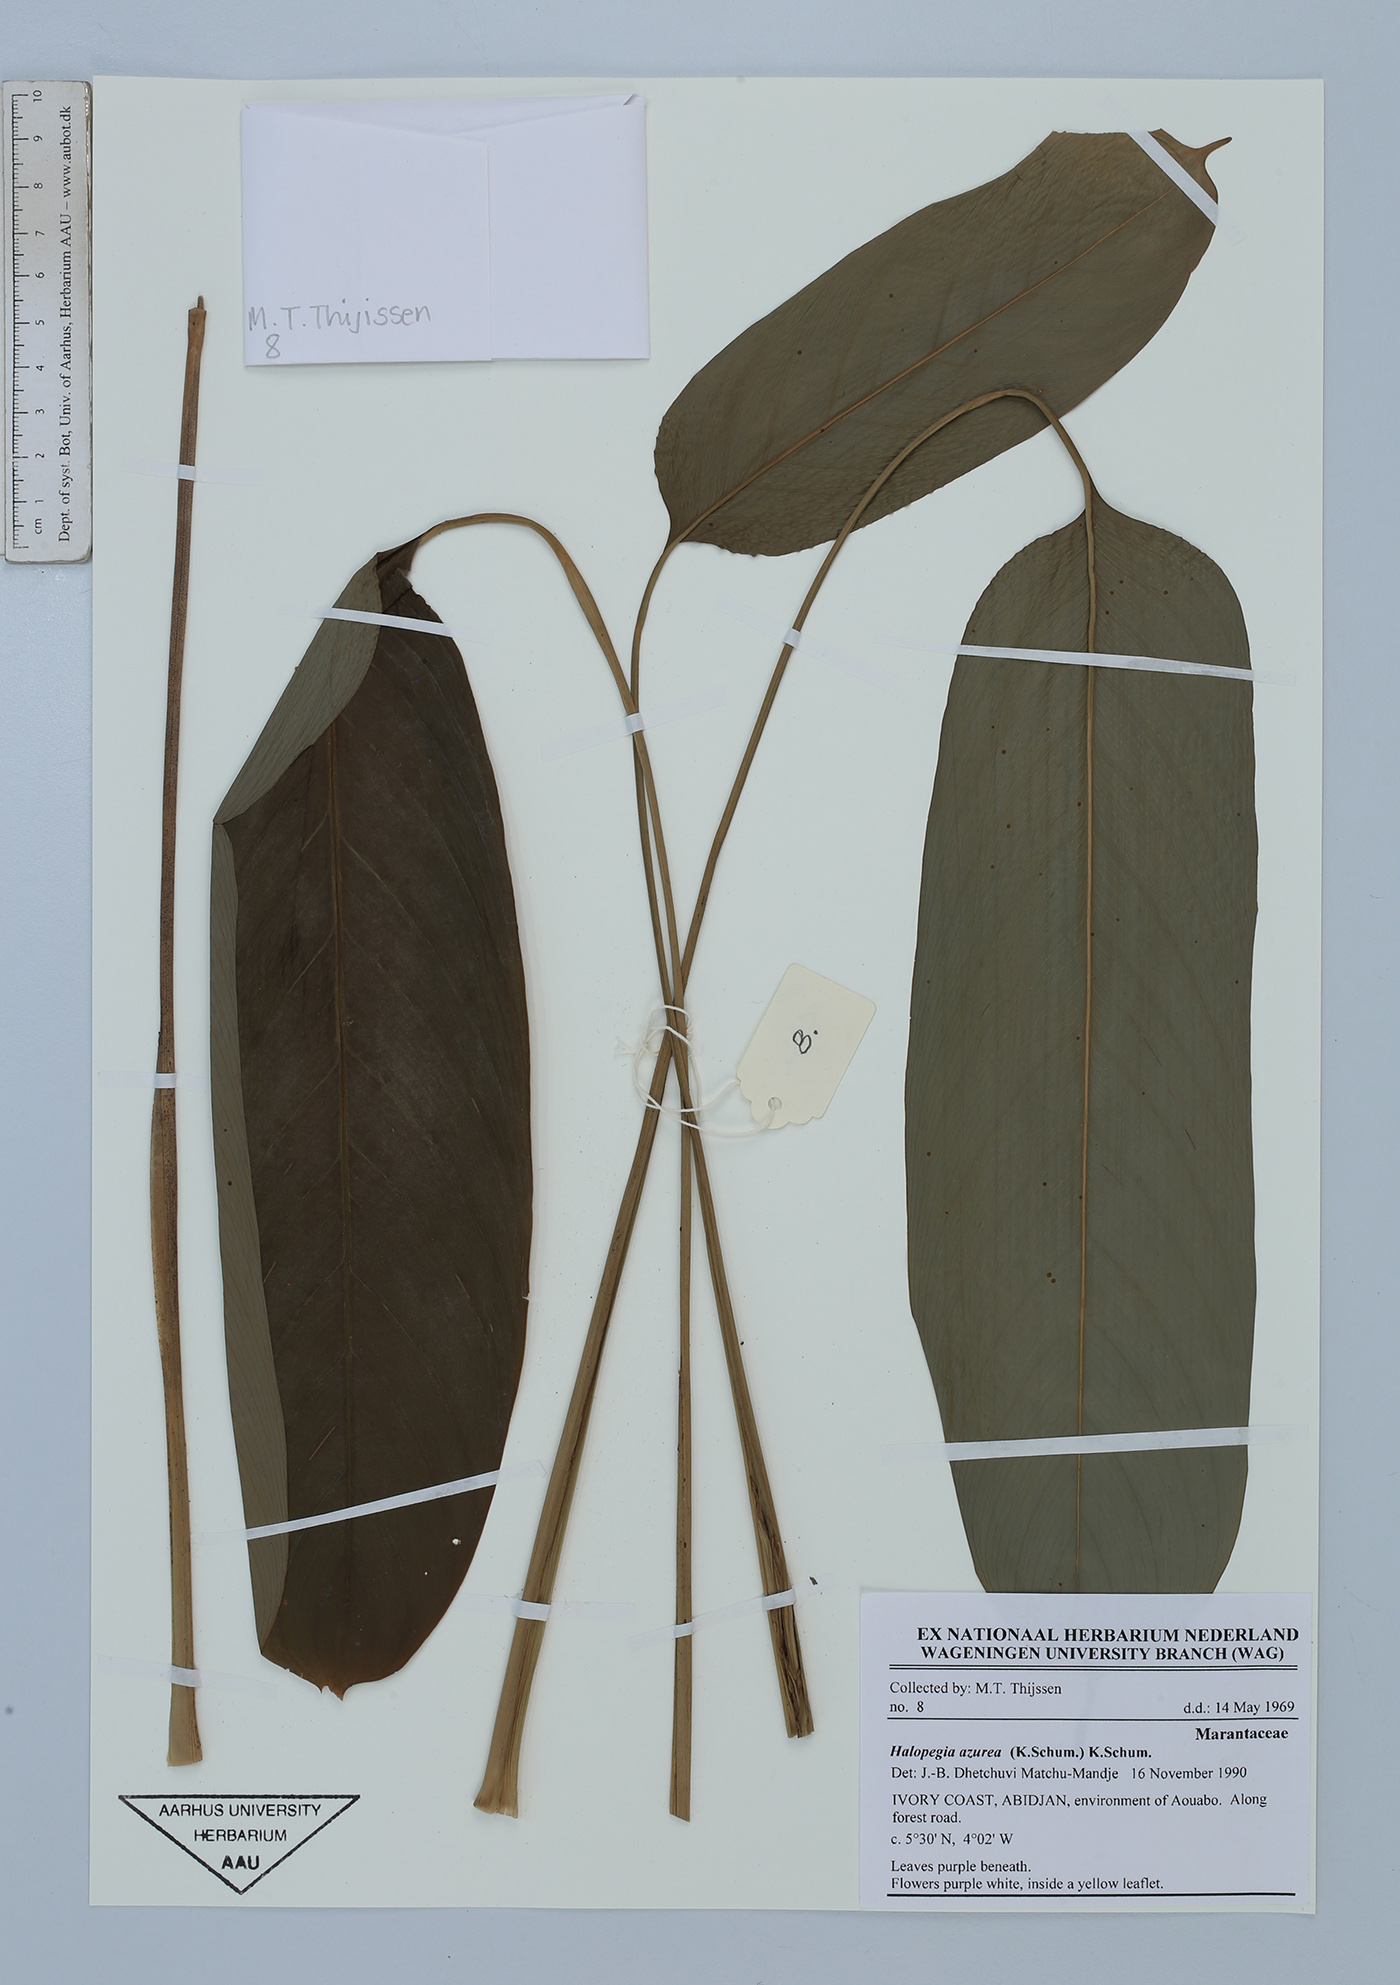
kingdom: Plantae
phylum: Tracheophyta
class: Liliopsida
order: Zingiberales
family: Marantaceae
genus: Halopegia
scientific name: Halopegia azurea
